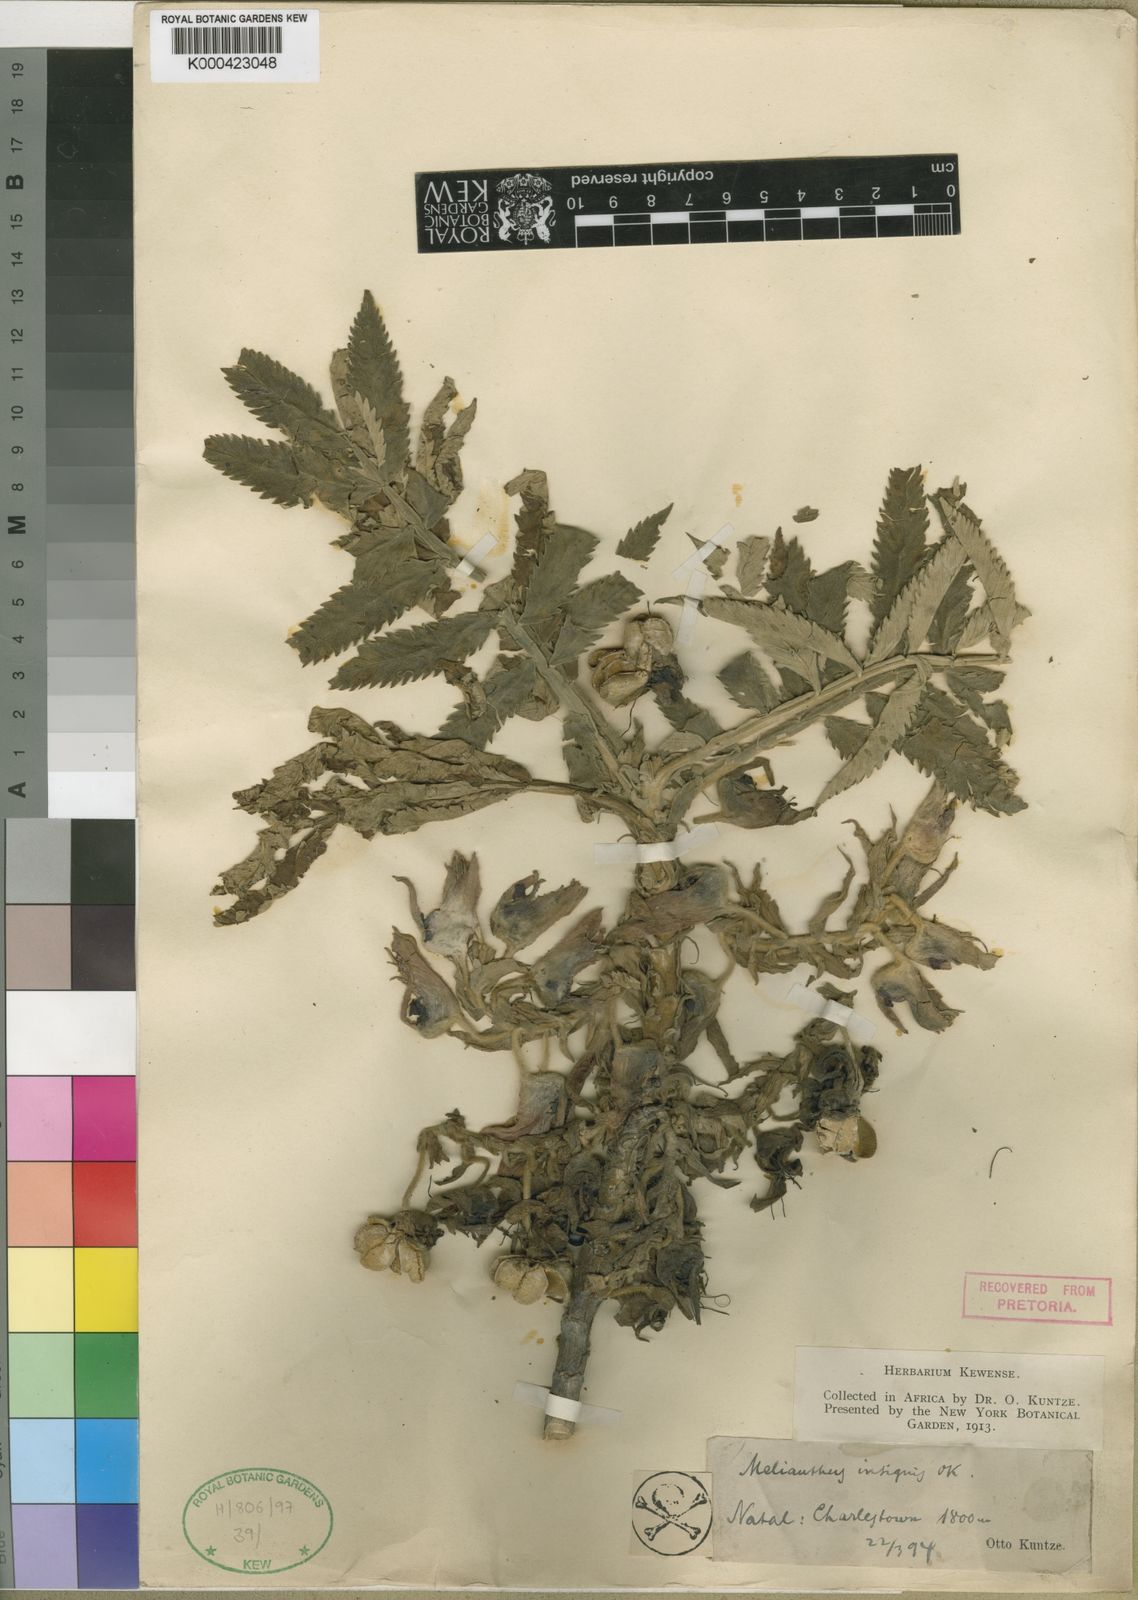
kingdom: Plantae
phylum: Tracheophyta
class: Magnoliopsida
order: Geraniales
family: Melianthaceae
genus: Melianthus
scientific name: Melianthus dregeanus
